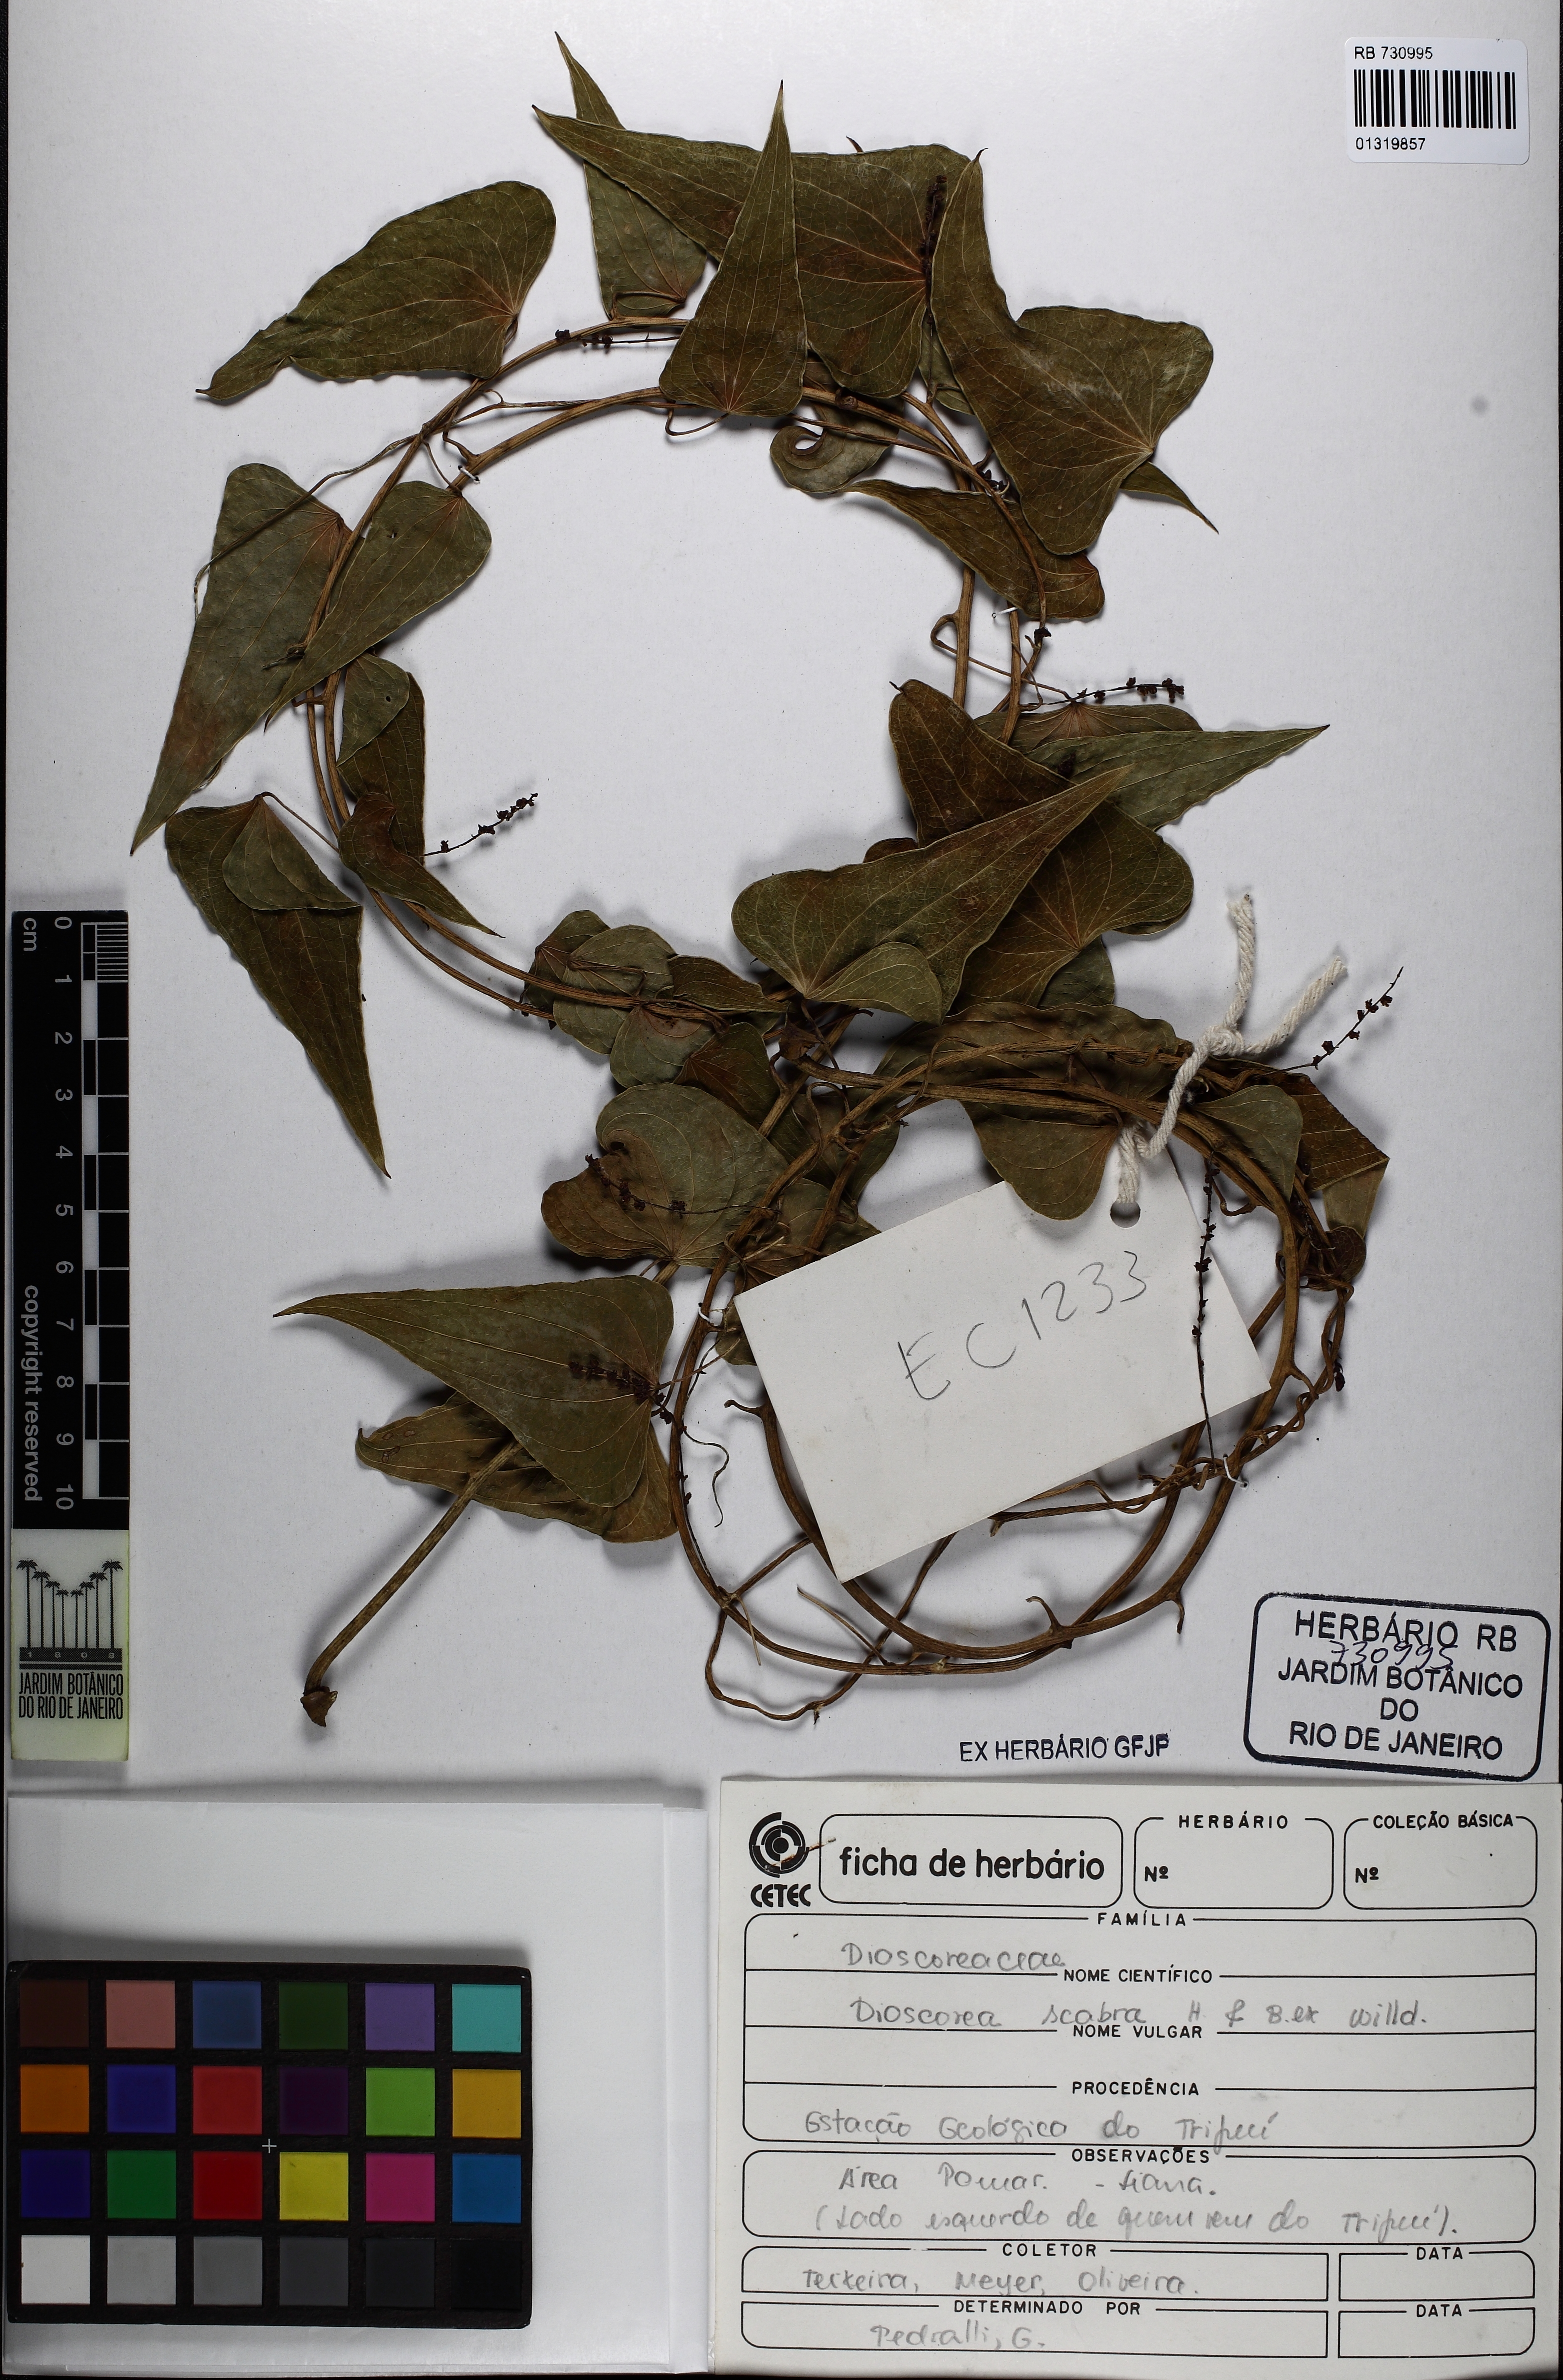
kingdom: Plantae
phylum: Tracheophyta
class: Liliopsida
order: Dioscoreales
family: Dioscoreaceae
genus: Dioscorea
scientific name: Dioscorea scabra
